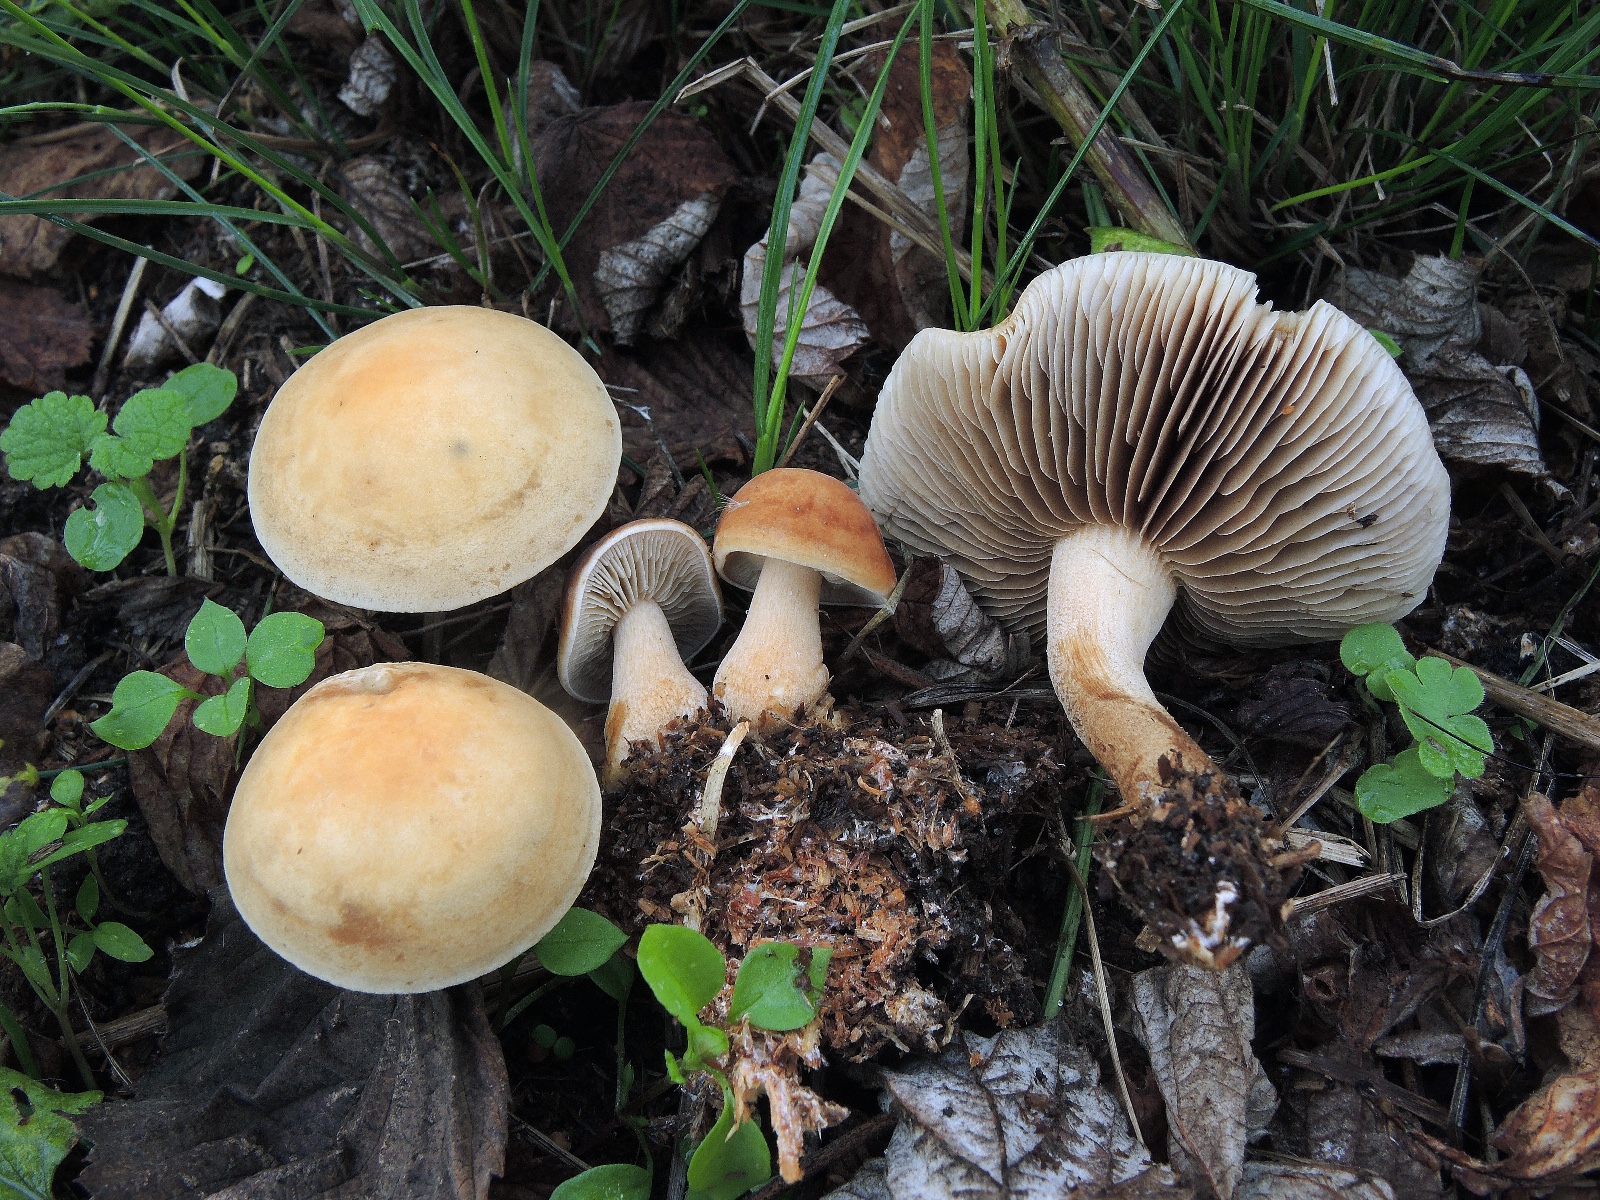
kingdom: Fungi
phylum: Basidiomycota
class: Agaricomycetes
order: Agaricales
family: Strophariaceae
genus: Agrocybe
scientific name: Agrocybe putaminum
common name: træflis-agerhat
